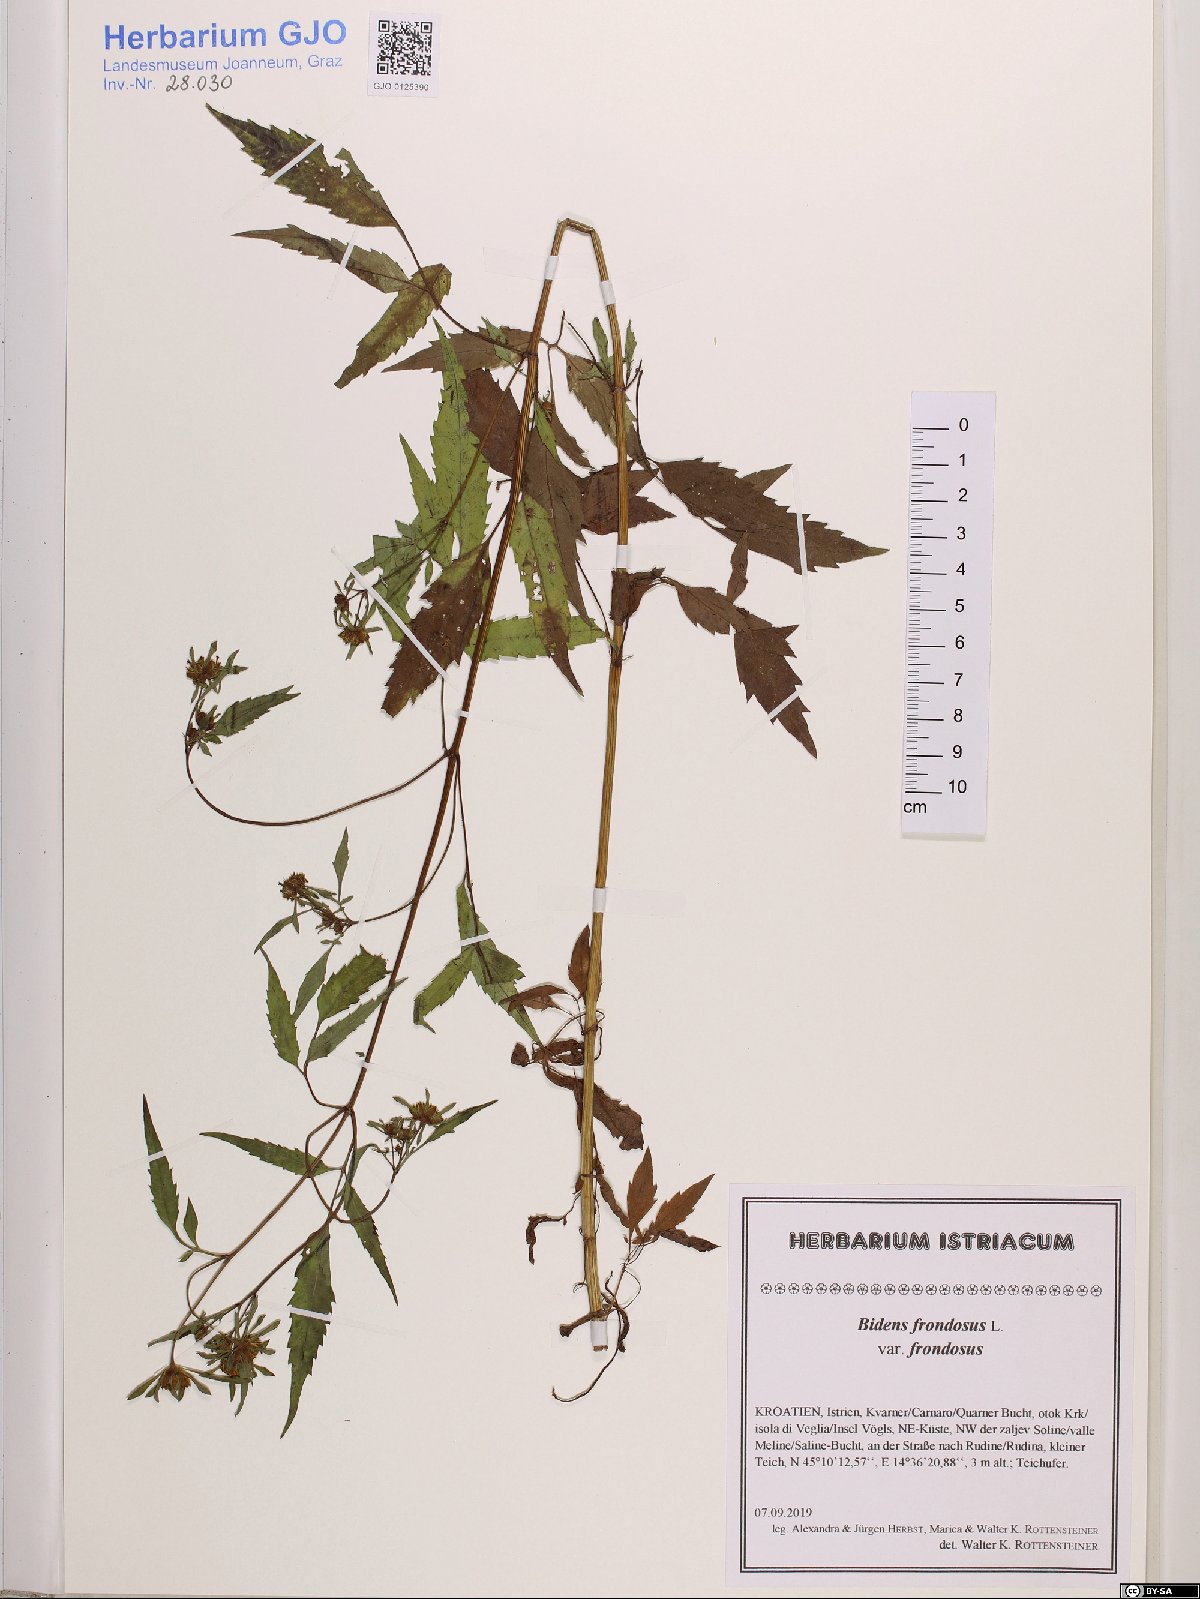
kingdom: Plantae
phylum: Tracheophyta
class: Magnoliopsida
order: Asterales
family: Asteraceae
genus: Bidens
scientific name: Bidens frondosa
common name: Beggarticks
